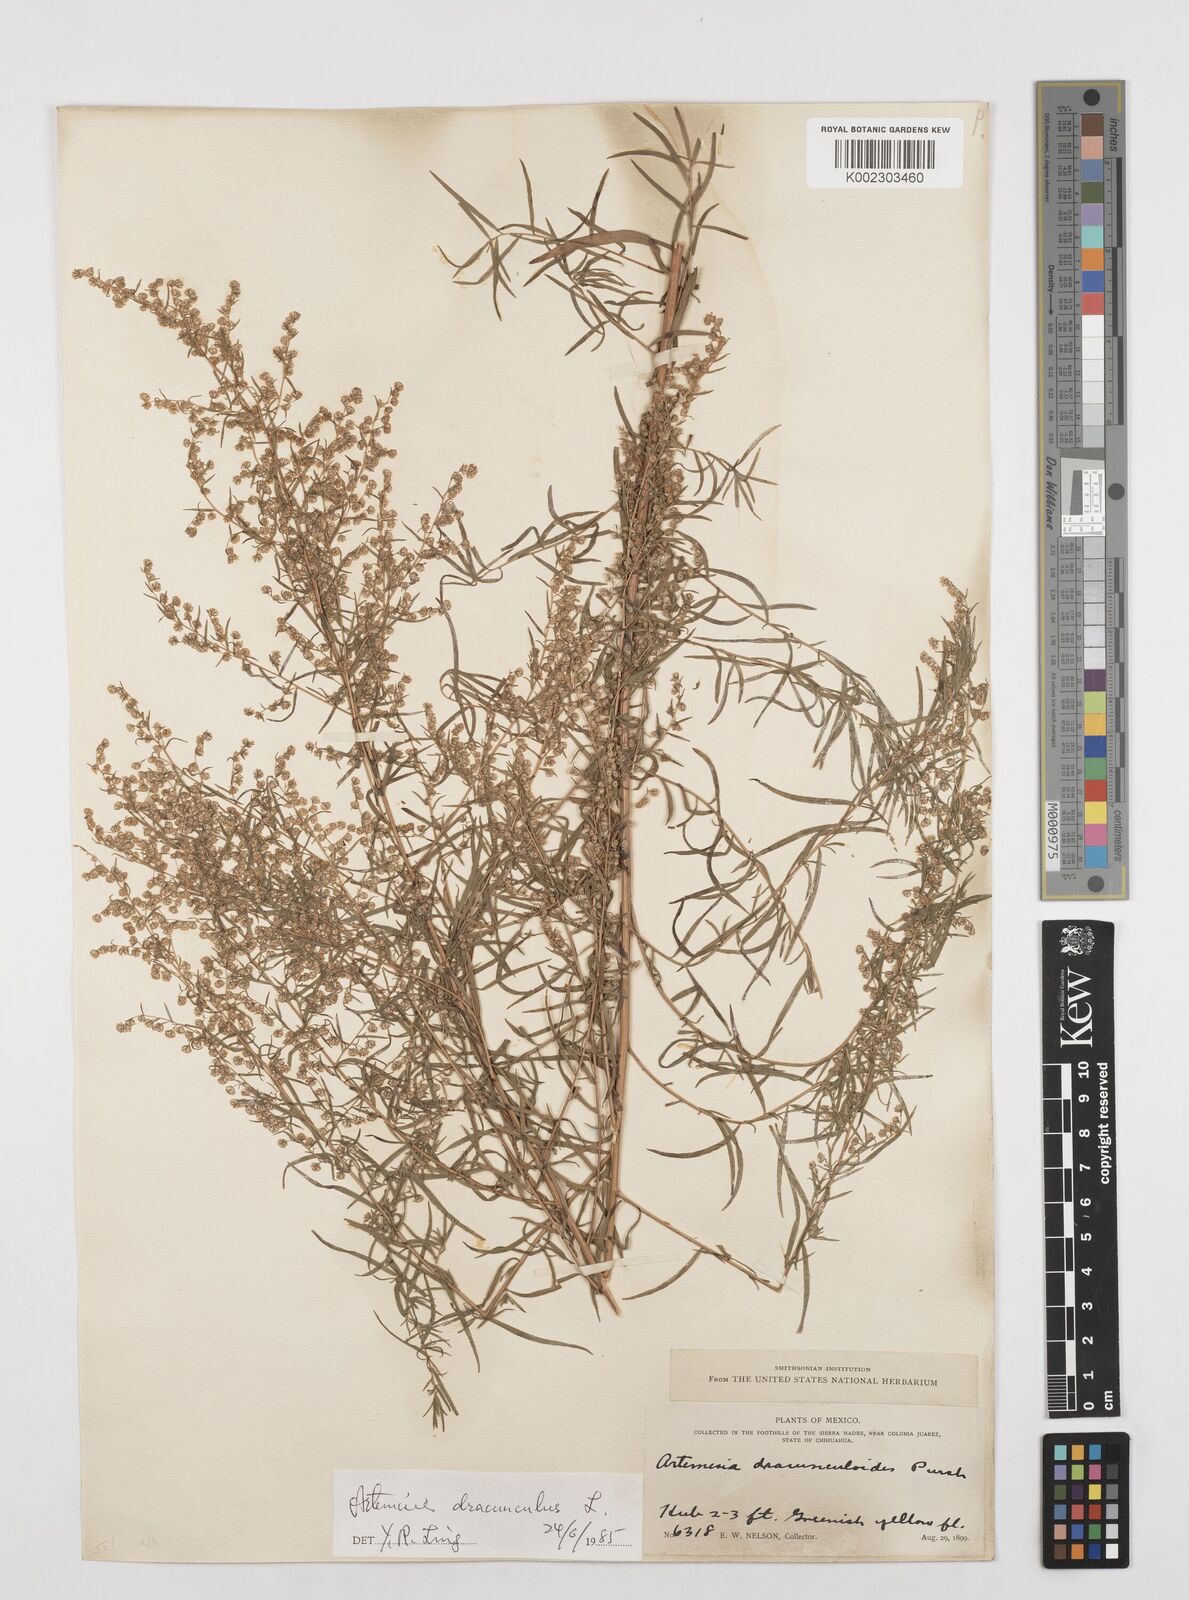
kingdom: Plantae
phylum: Tracheophyta
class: Magnoliopsida
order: Asterales
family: Asteraceae
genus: Artemisia
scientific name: Artemisia dracunculus
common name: Tarragon
